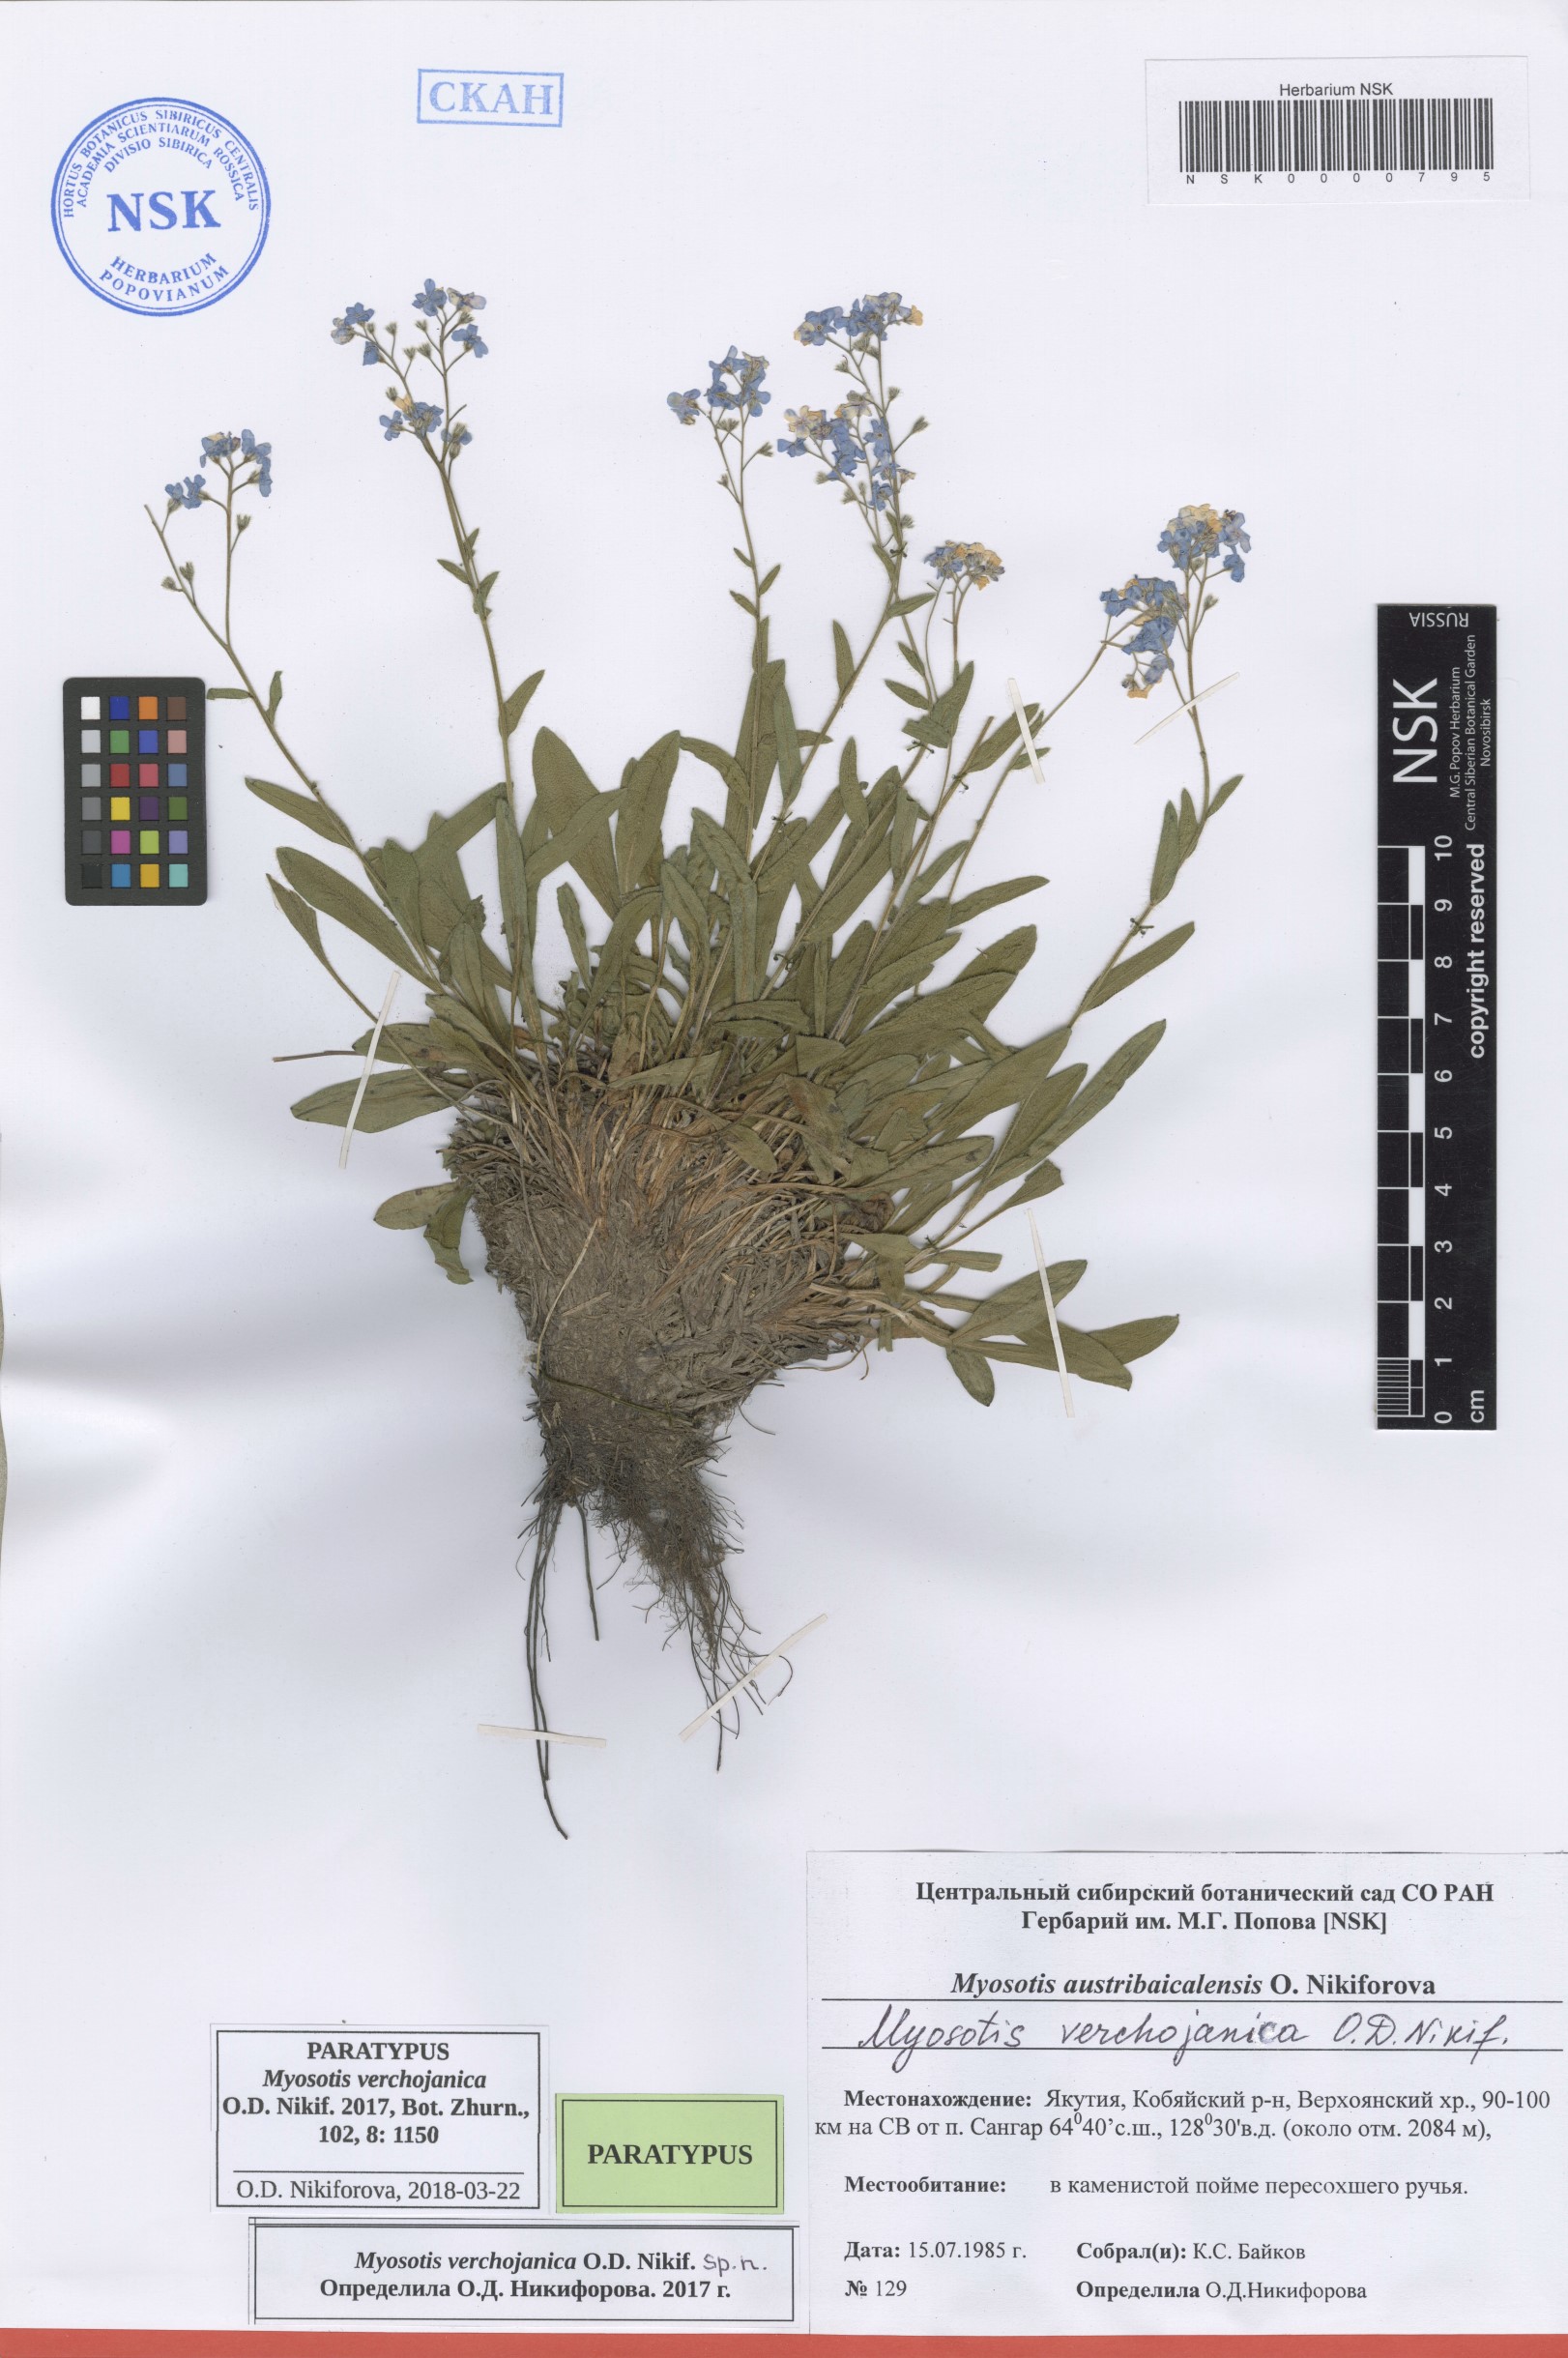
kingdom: Plantae
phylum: Tracheophyta
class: Magnoliopsida
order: Boraginales
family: Boraginaceae
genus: Myosotis
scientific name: Myosotis
